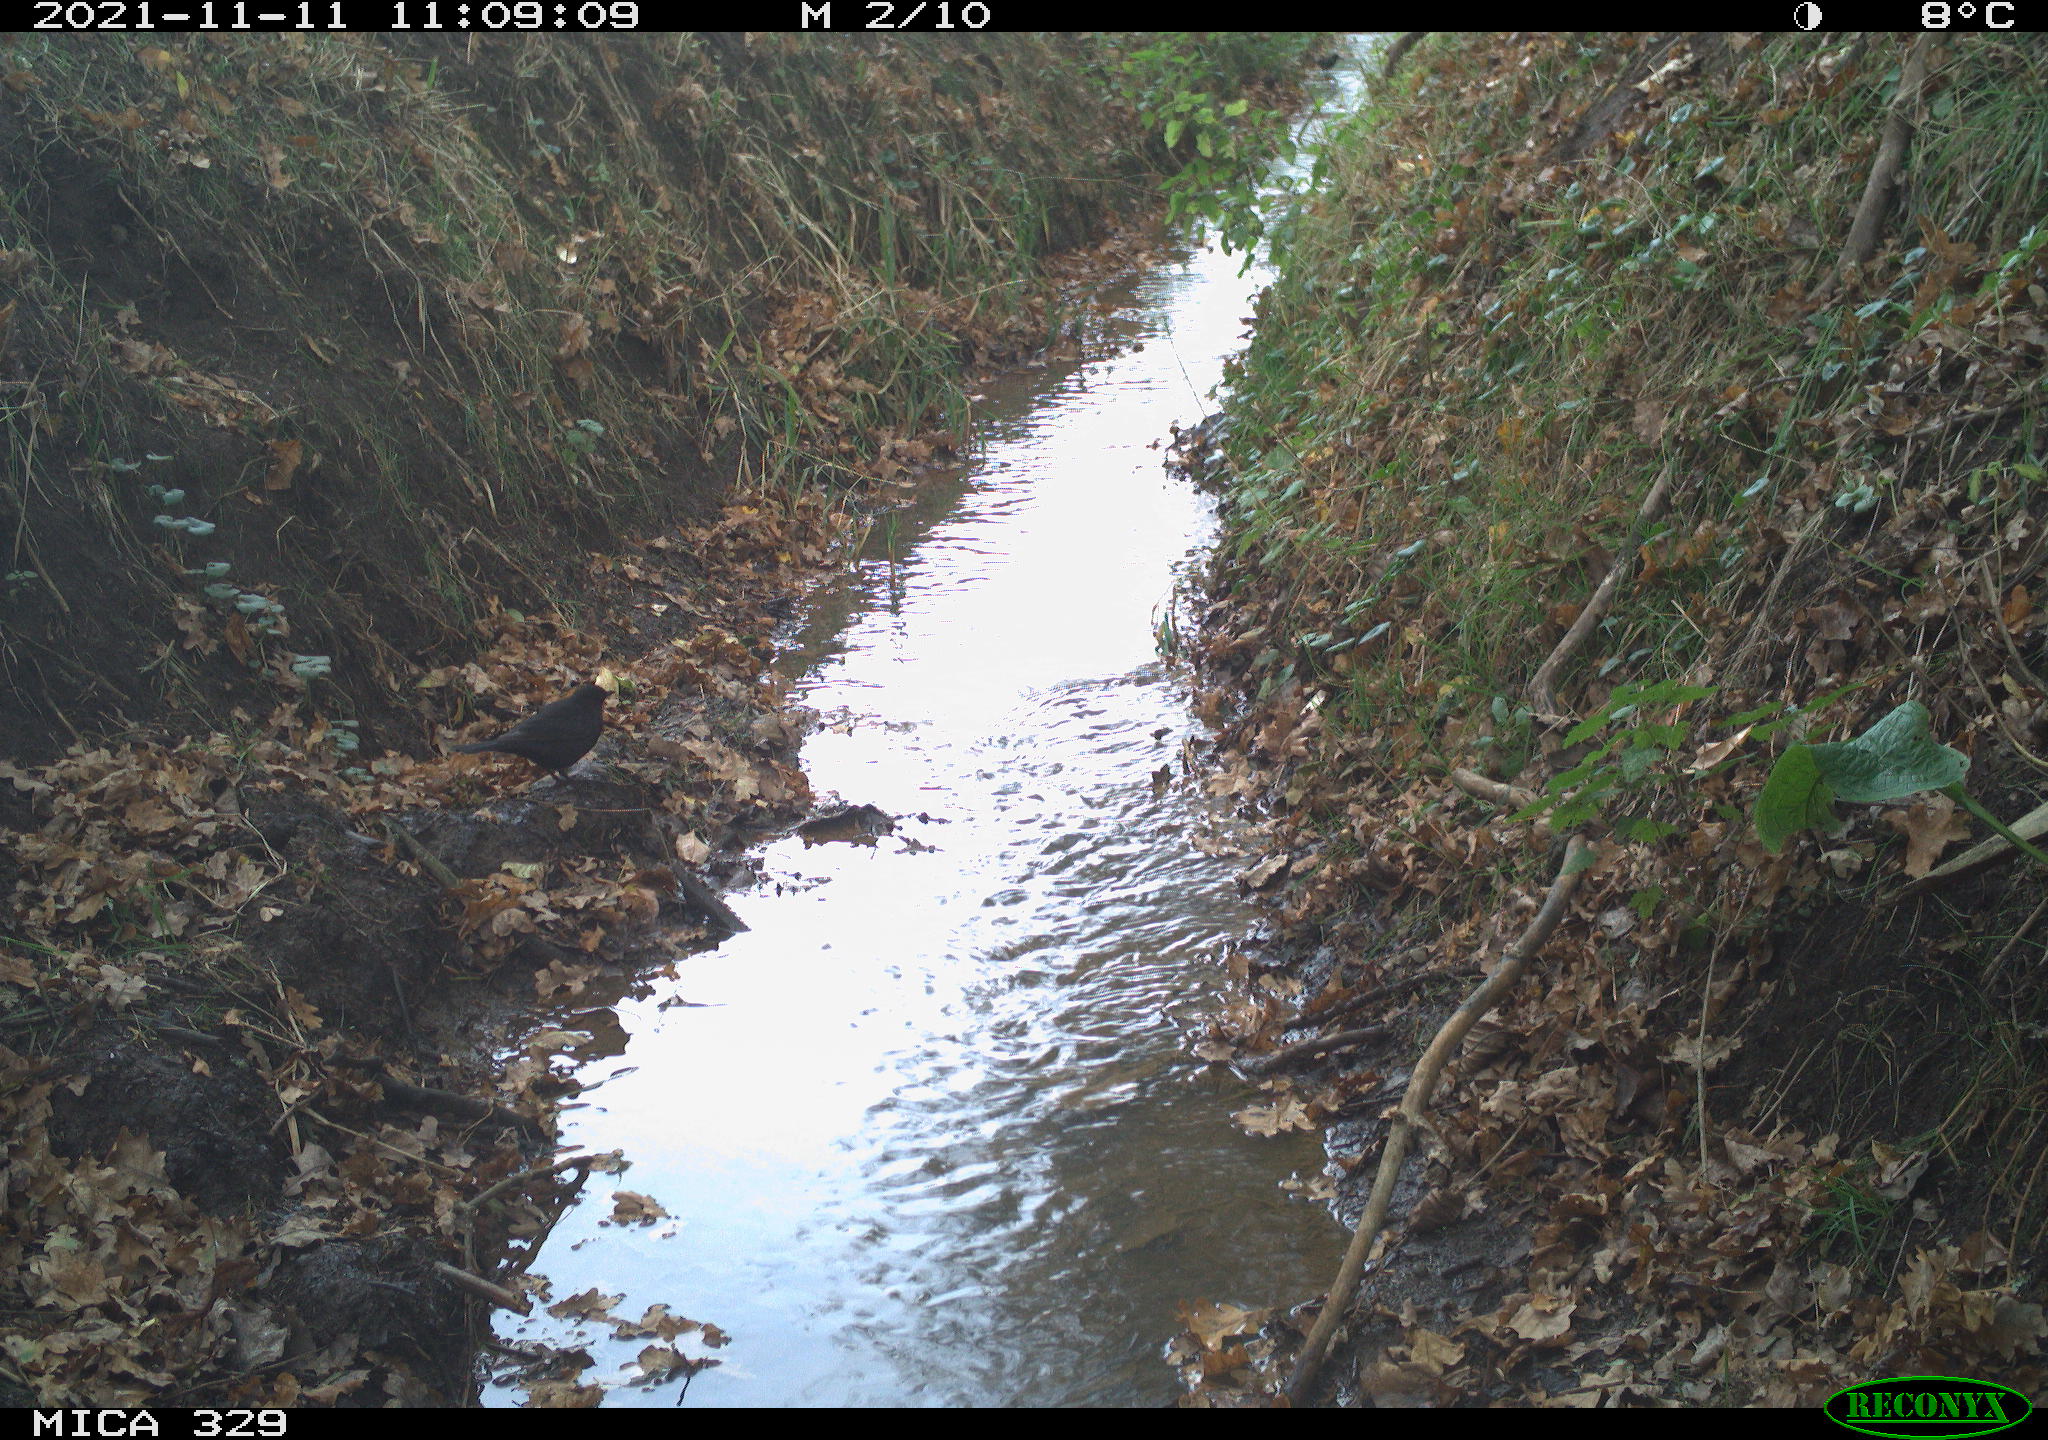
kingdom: Animalia
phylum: Chordata
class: Aves
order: Passeriformes
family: Turdidae
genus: Turdus
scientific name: Turdus merula
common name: Common blackbird
